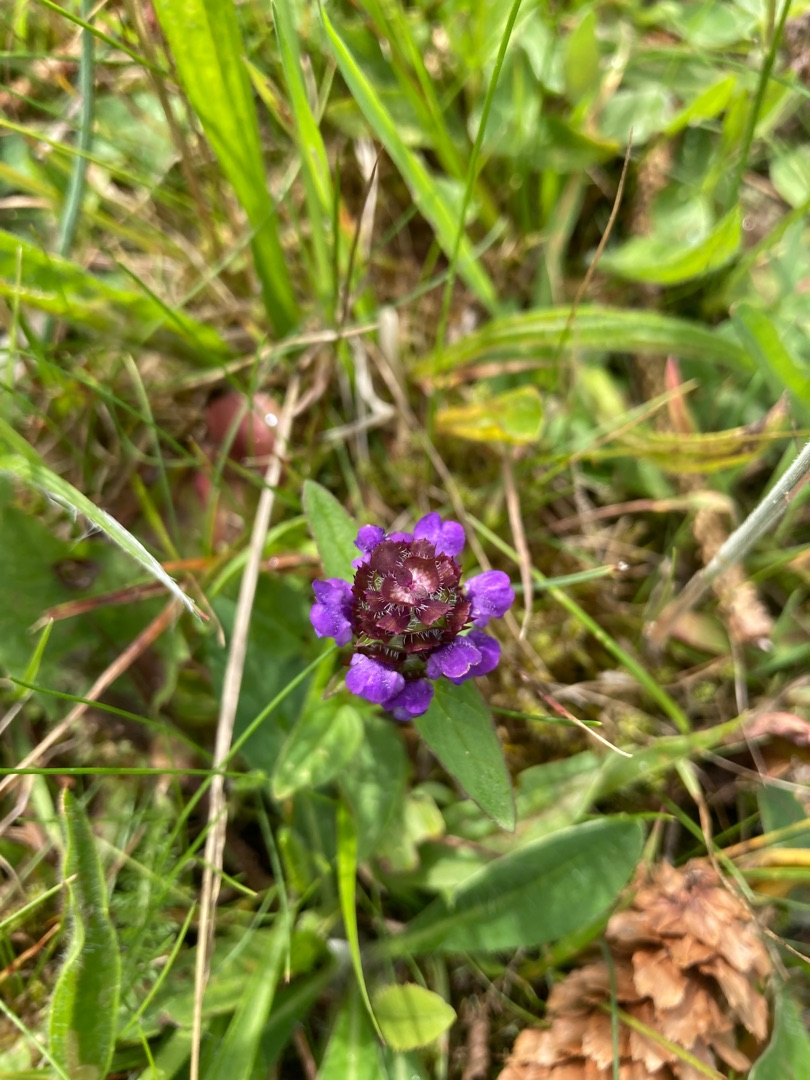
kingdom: Plantae
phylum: Tracheophyta
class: Magnoliopsida
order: Lamiales
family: Lamiaceae
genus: Prunella
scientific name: Prunella vulgaris
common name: Almindelig brunelle
